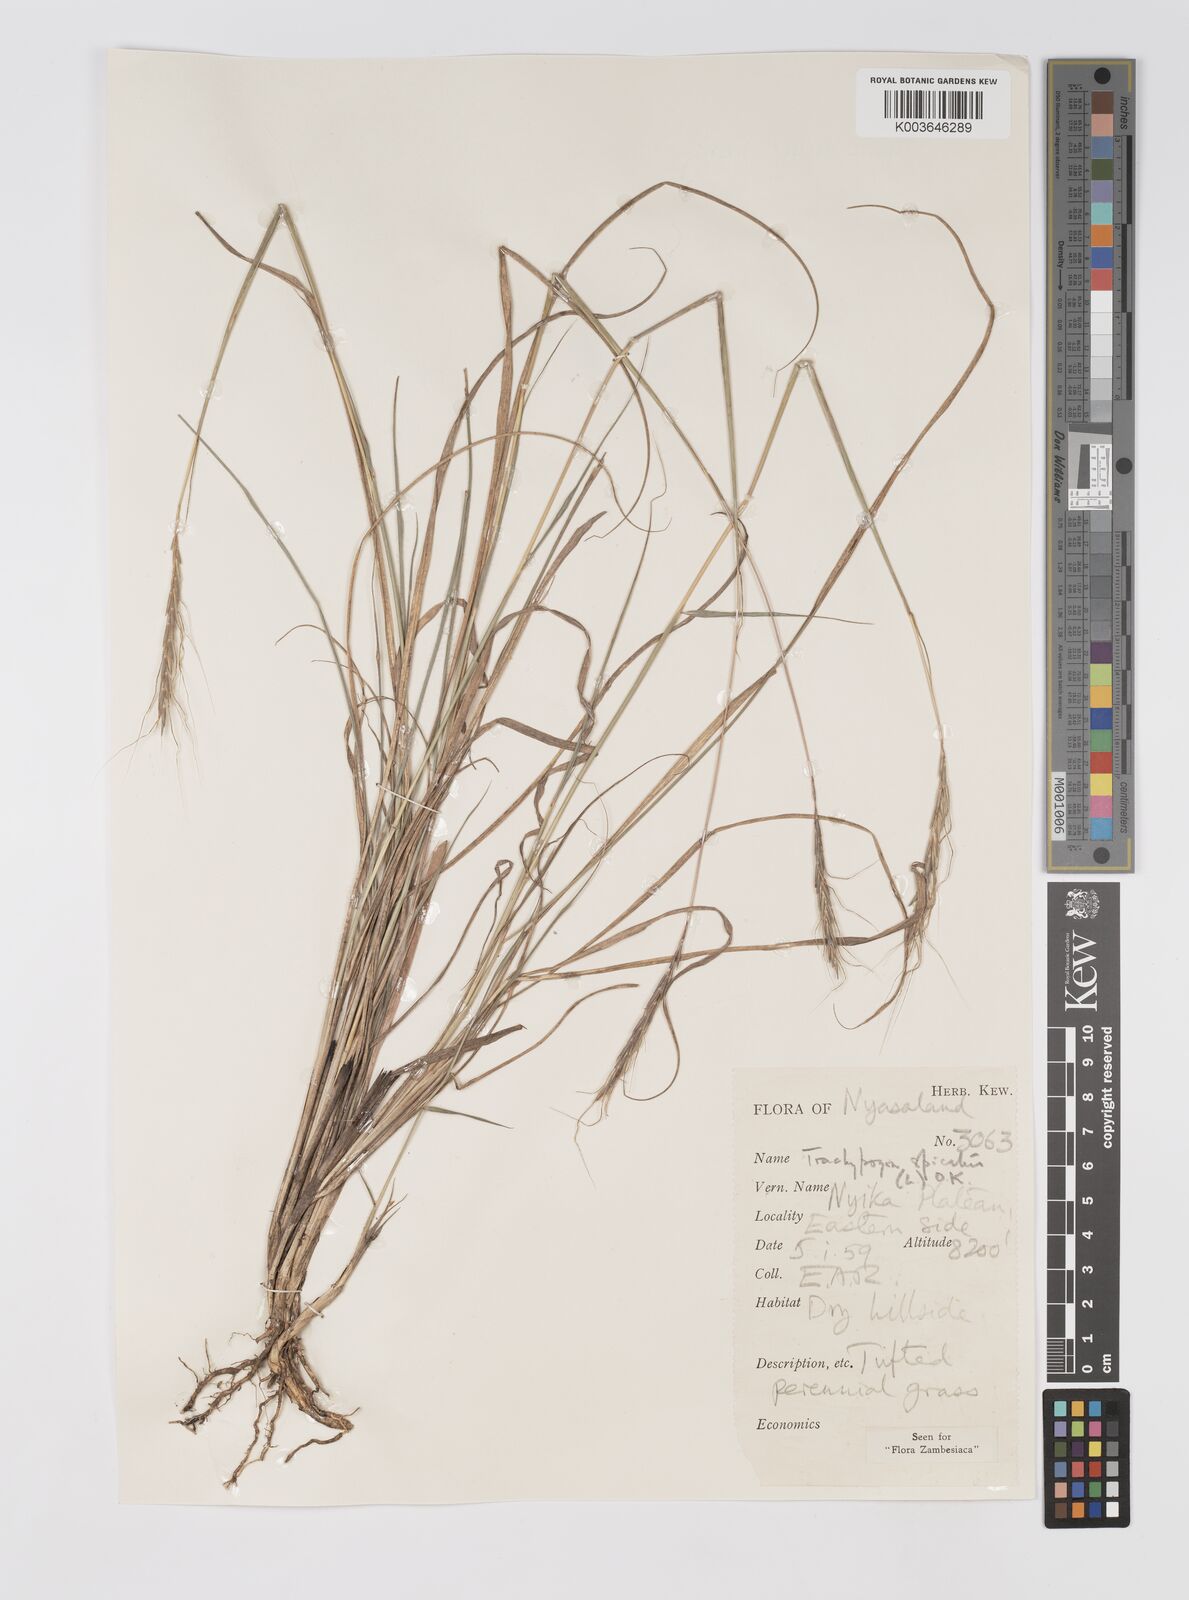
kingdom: Plantae
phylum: Tracheophyta
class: Liliopsida
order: Poales
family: Poaceae
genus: Trachypogon
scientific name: Trachypogon spicatus
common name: Crinkle-awn
